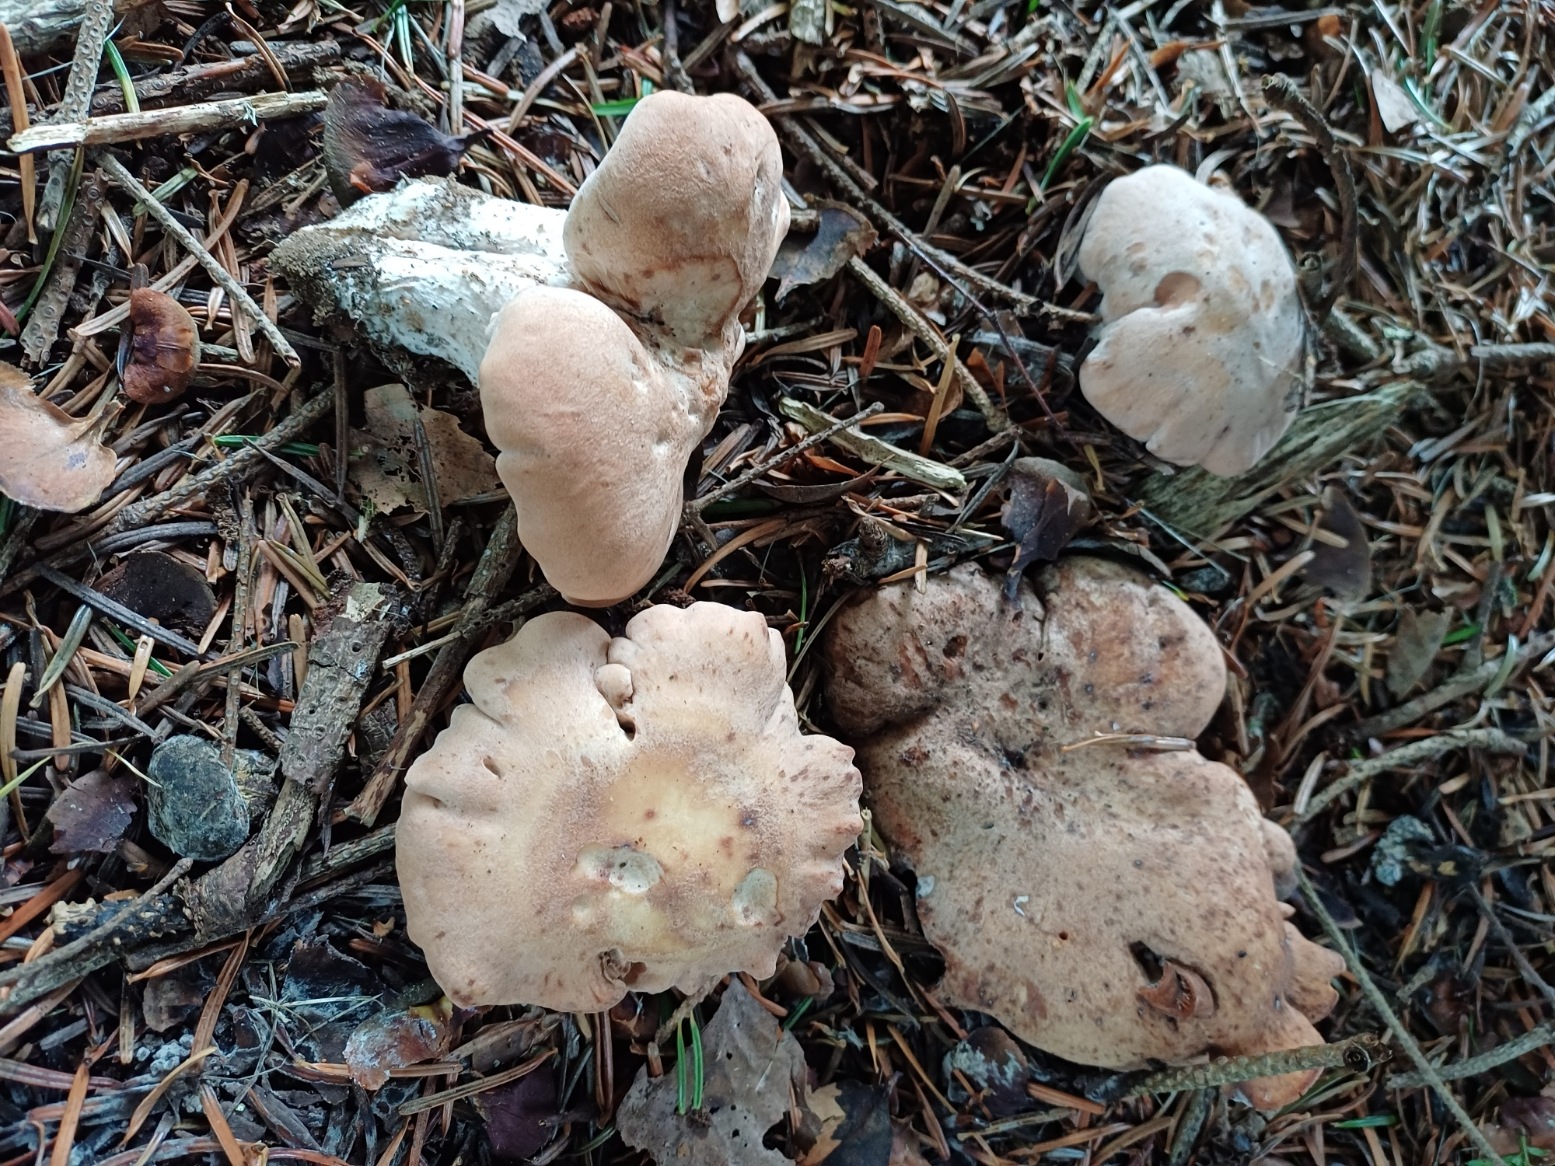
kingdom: Fungi
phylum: Basidiomycota
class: Agaricomycetes
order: Agaricales
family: Entolomataceae
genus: Clitopilus
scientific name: Clitopilus geminus
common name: kødfarvet troldhat
